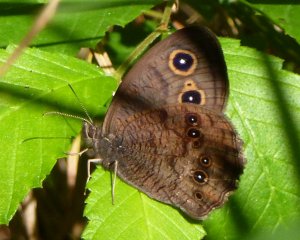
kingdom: Animalia
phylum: Arthropoda
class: Insecta
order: Lepidoptera
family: Nymphalidae
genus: Cercyonis
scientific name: Cercyonis pegala
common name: Common Wood-Nymph
